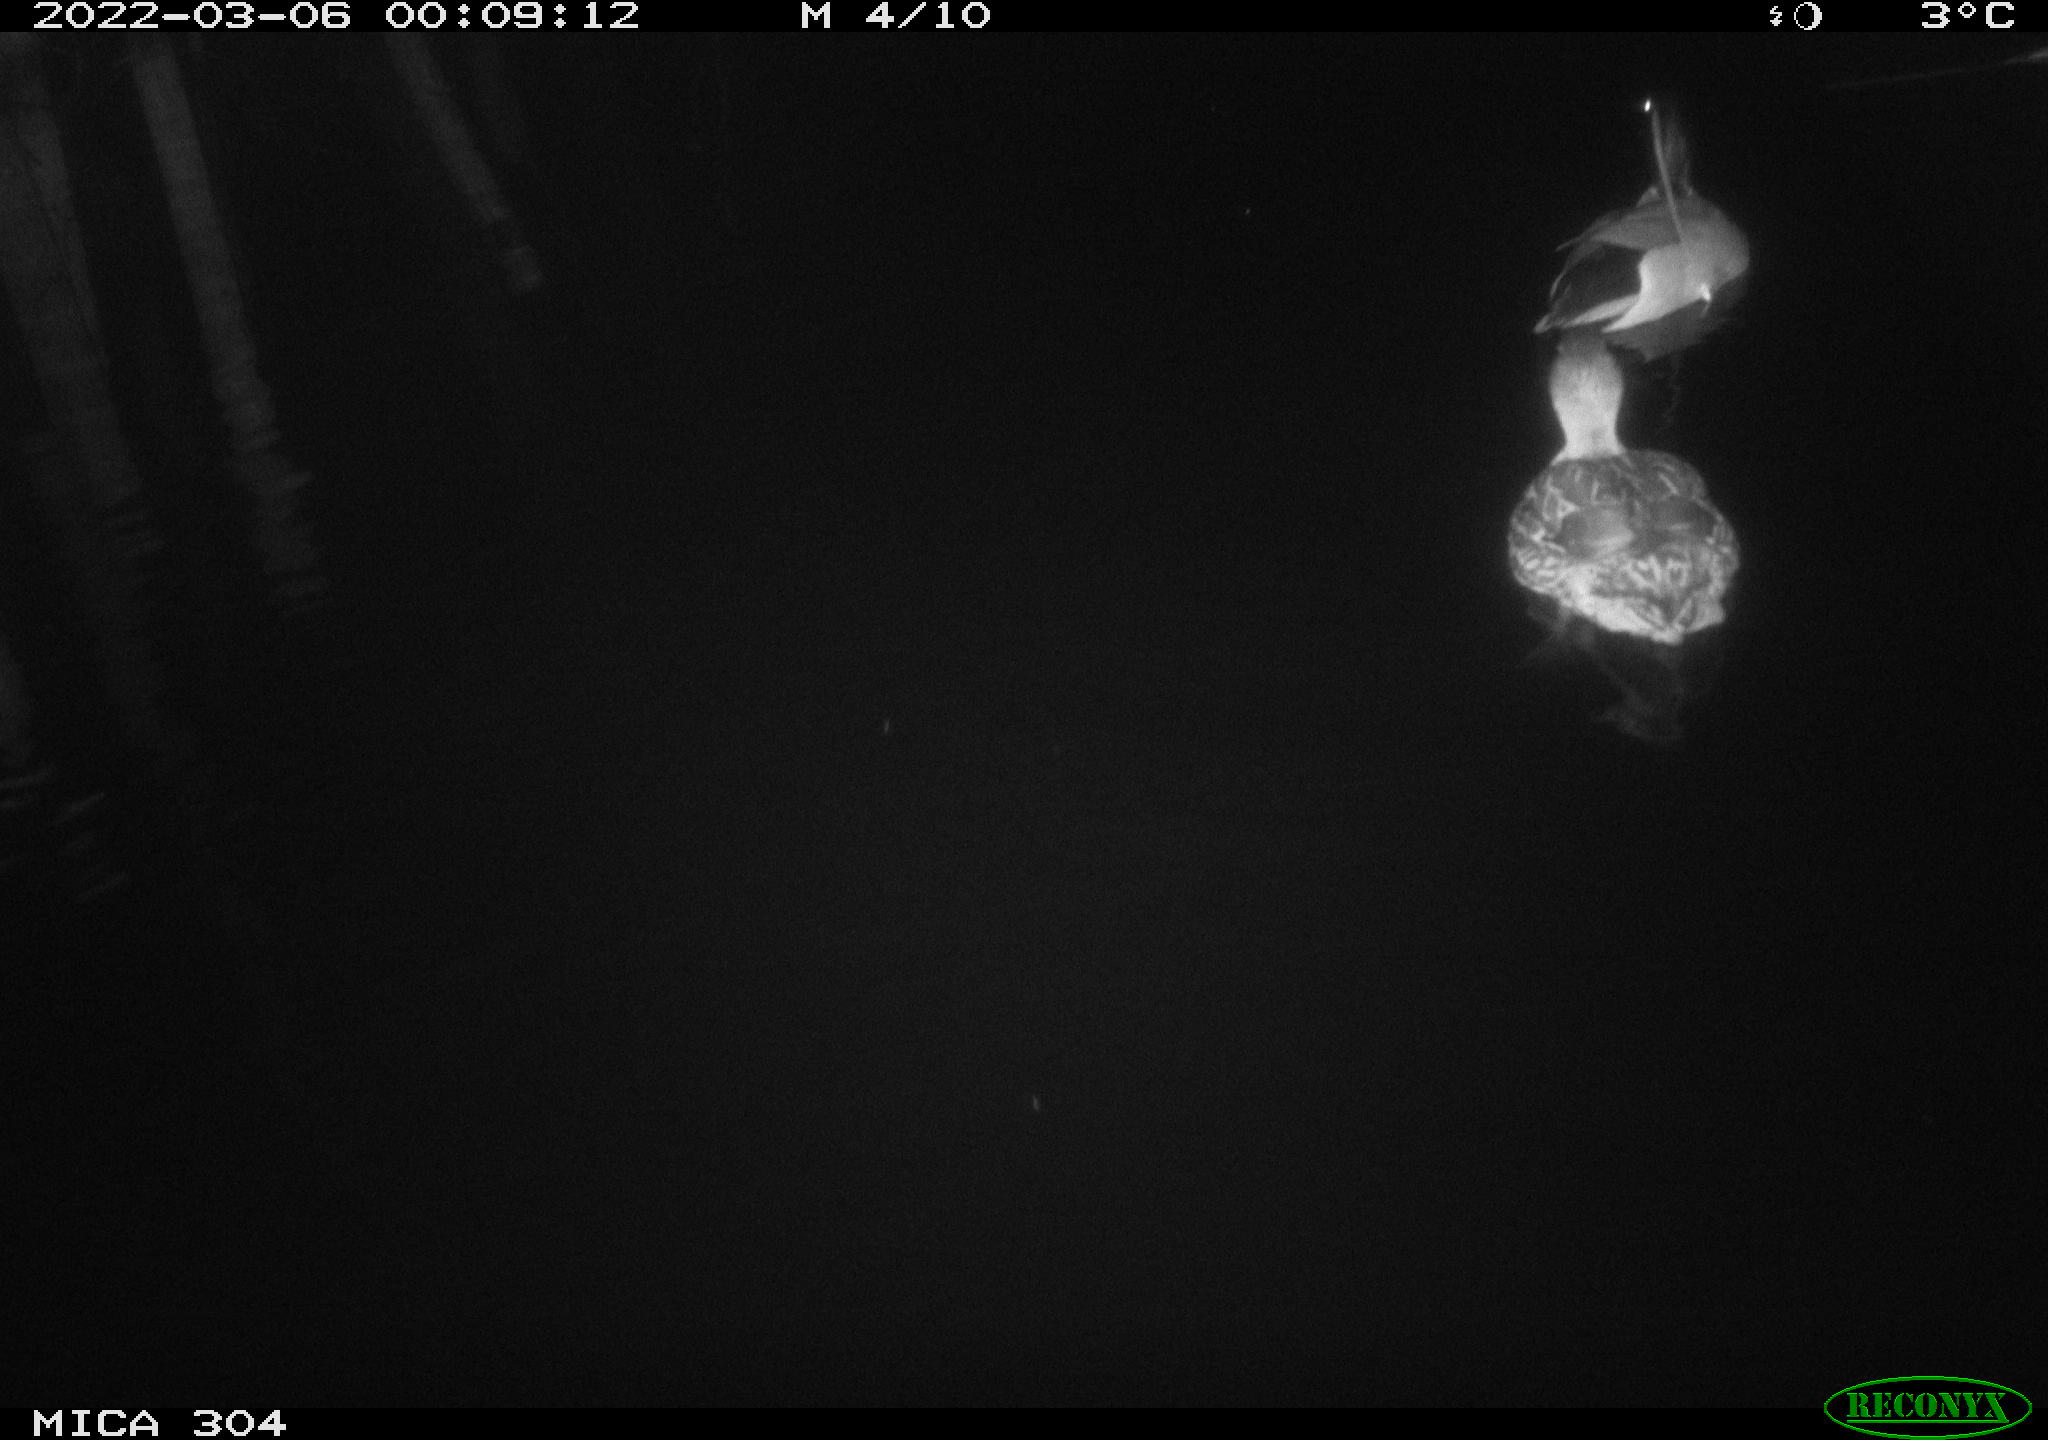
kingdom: Animalia
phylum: Chordata
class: Aves
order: Anseriformes
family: Anatidae
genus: Anas
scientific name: Anas platyrhynchos
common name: Mallard
